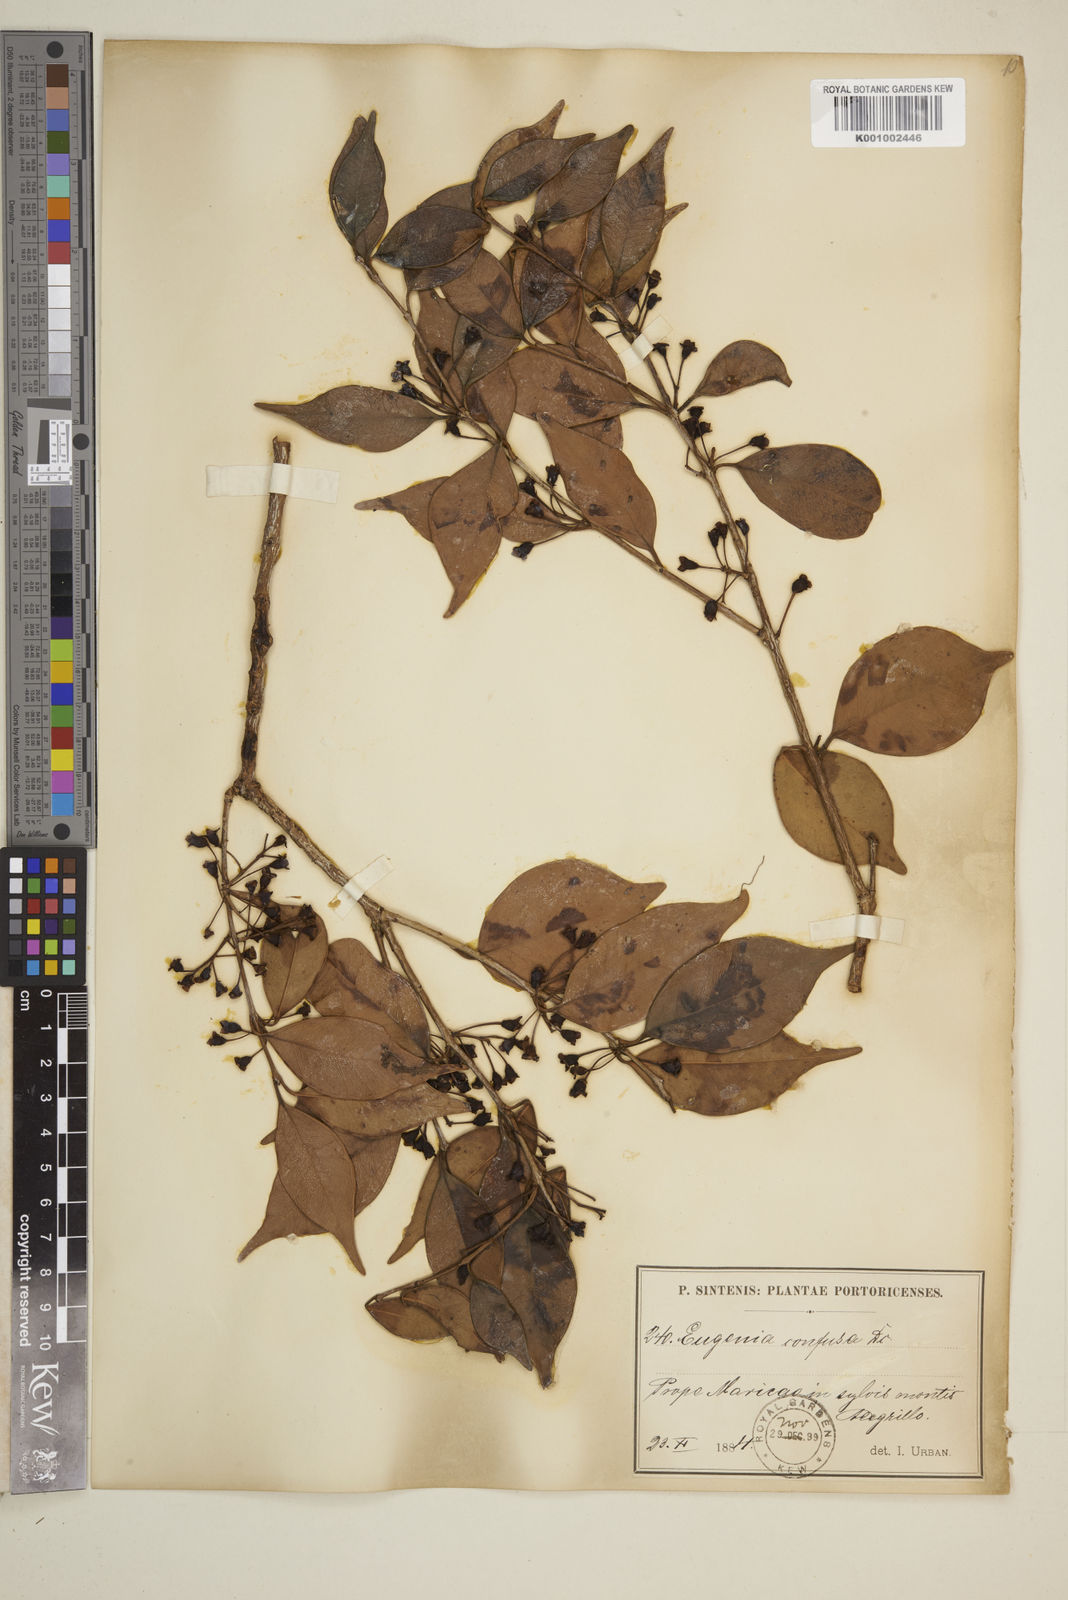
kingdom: Plantae
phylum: Tracheophyta
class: Magnoliopsida
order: Myrtales
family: Myrtaceae
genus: Eugenia
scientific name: Eugenia confusa
